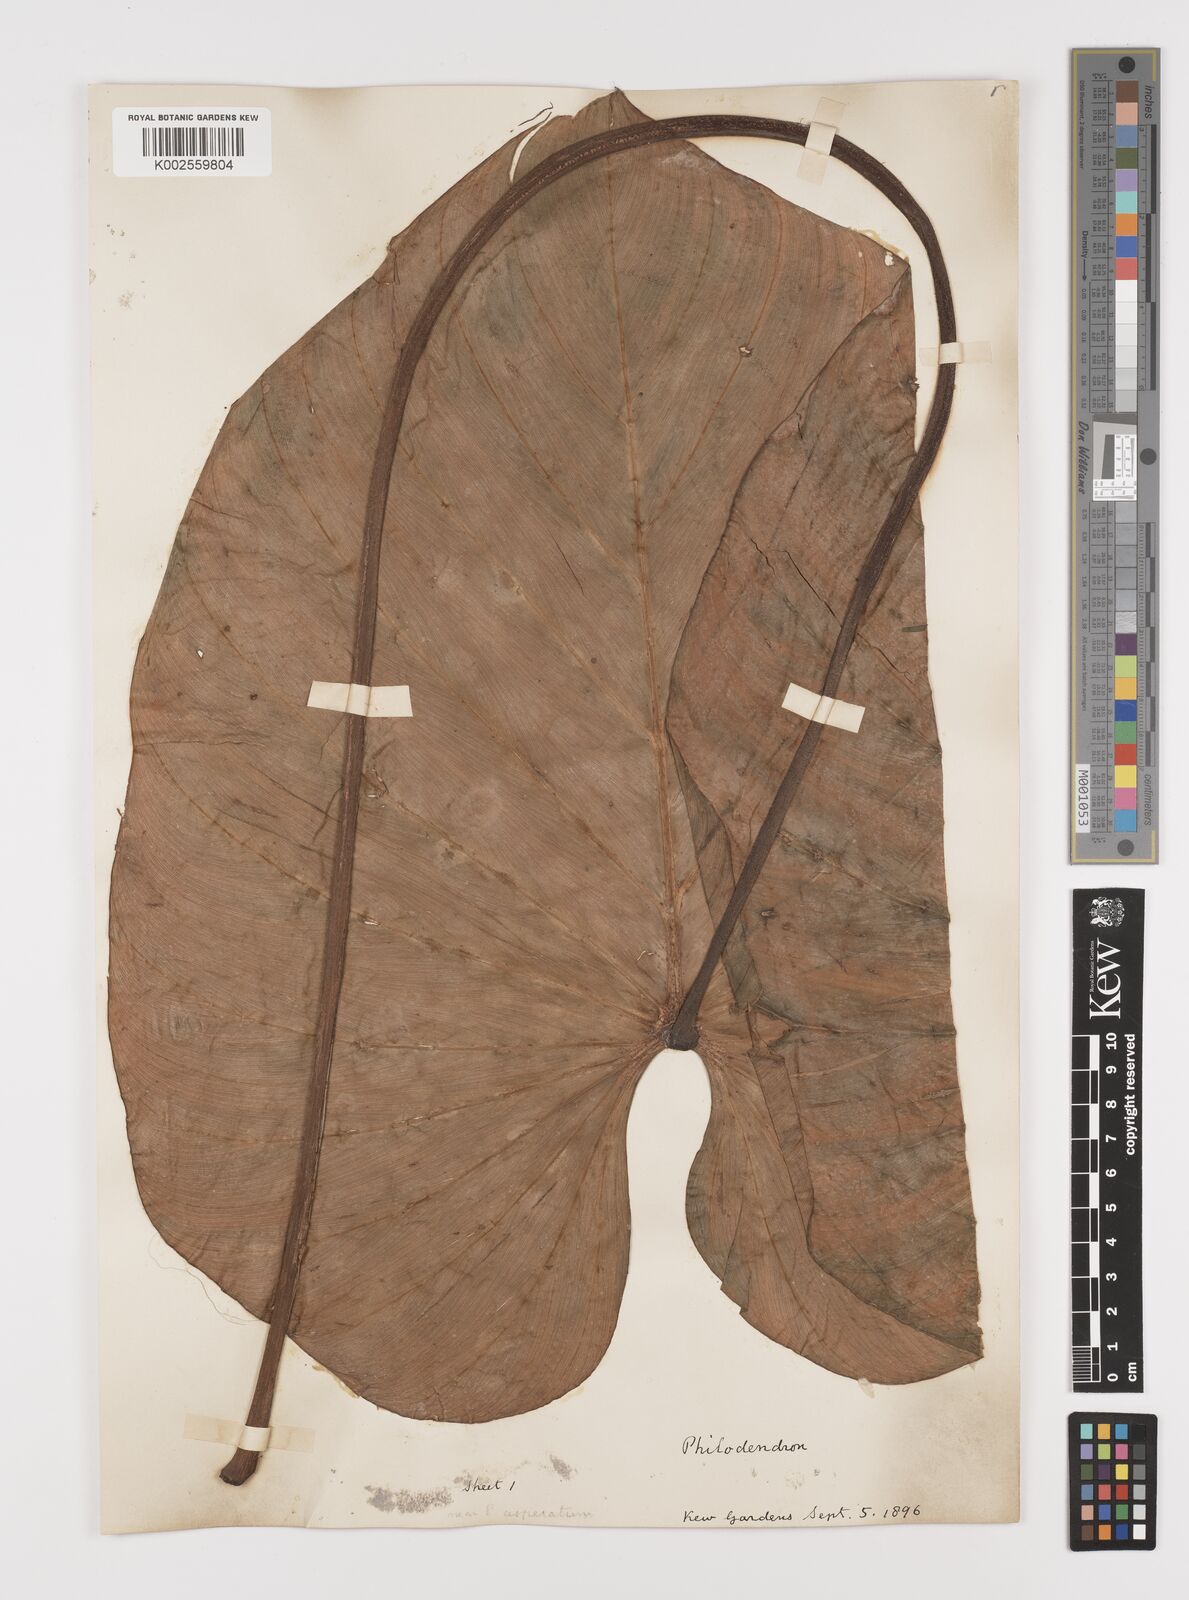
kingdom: Plantae
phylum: Tracheophyta
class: Liliopsida
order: Alismatales
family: Araceae
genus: Philodendron
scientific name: Philodendron ornatum
